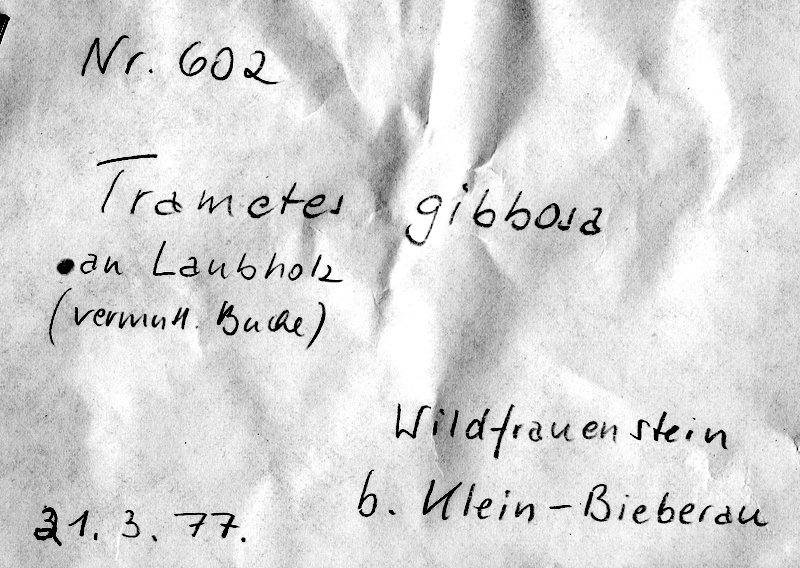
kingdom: Fungi
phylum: Basidiomycota
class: Agaricomycetes
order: Polyporales
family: Polyporaceae
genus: Trametes
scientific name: Trametes gibbosa
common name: Lumpy bracket
